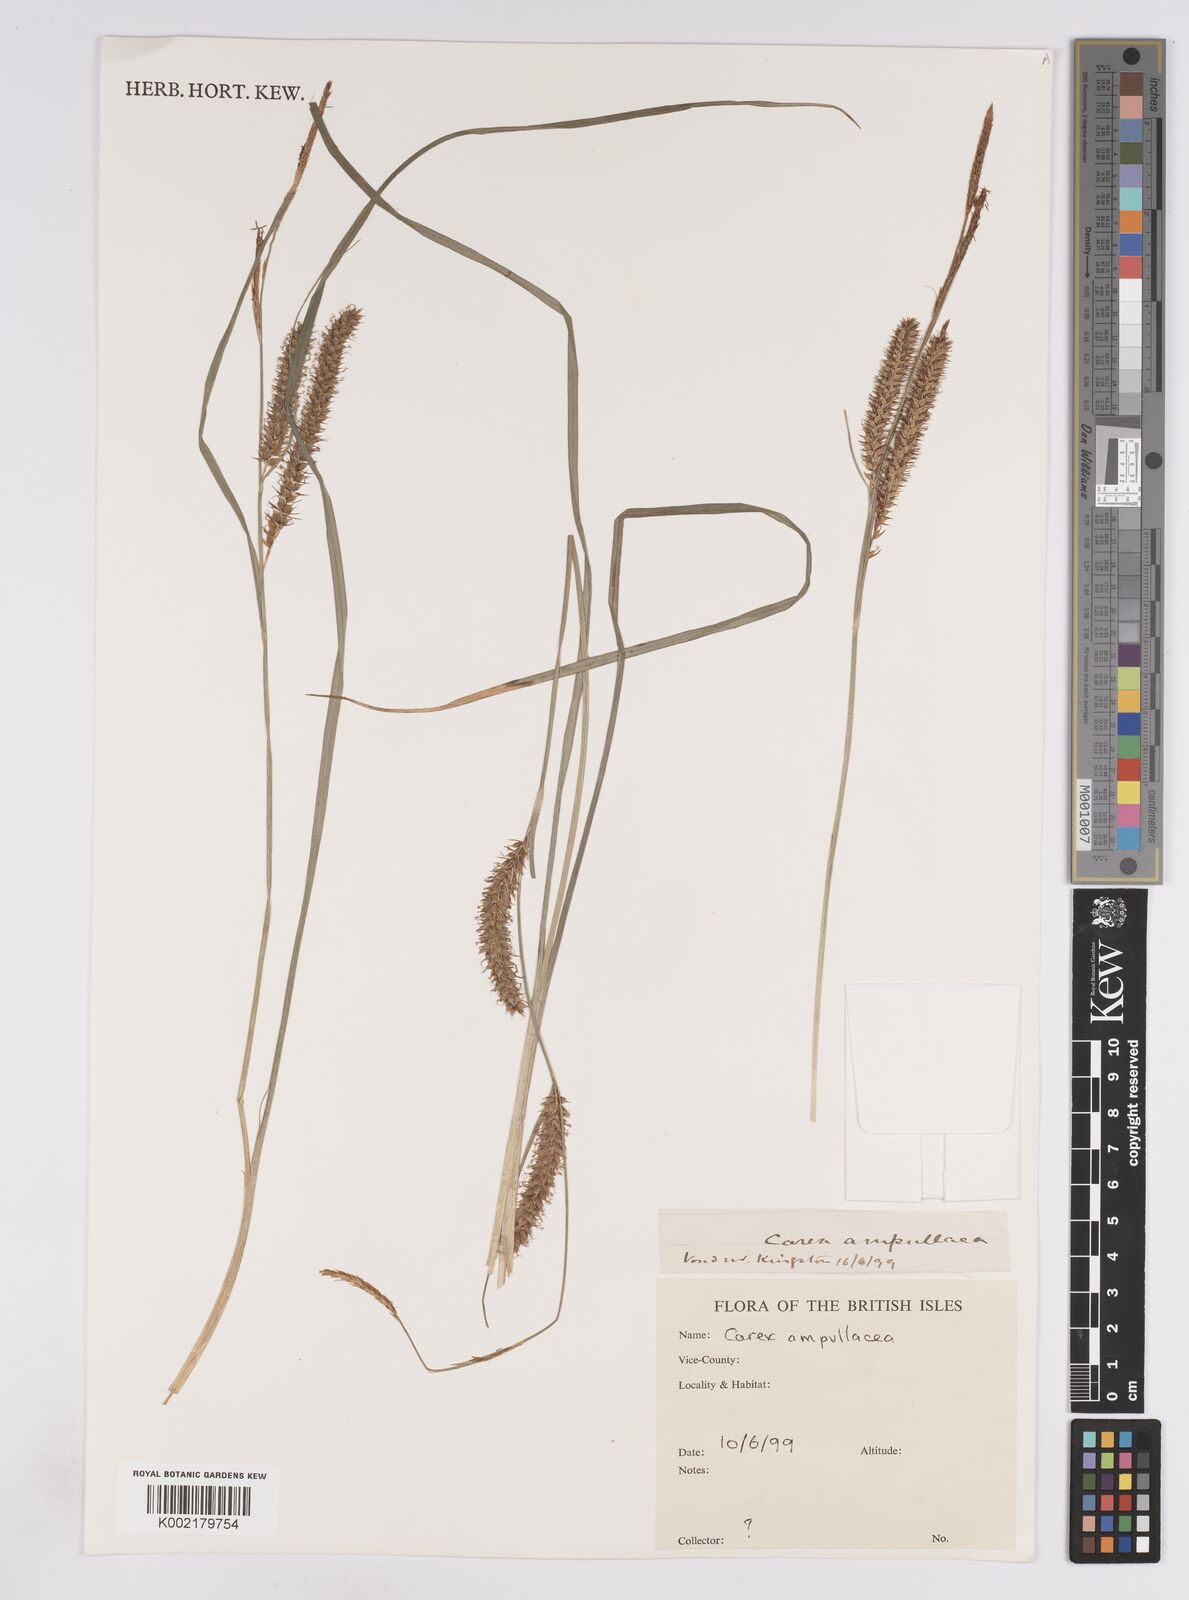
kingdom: Plantae
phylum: Tracheophyta
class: Liliopsida
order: Poales
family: Cyperaceae
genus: Carex
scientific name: Carex rostrata
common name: Bottle sedge
